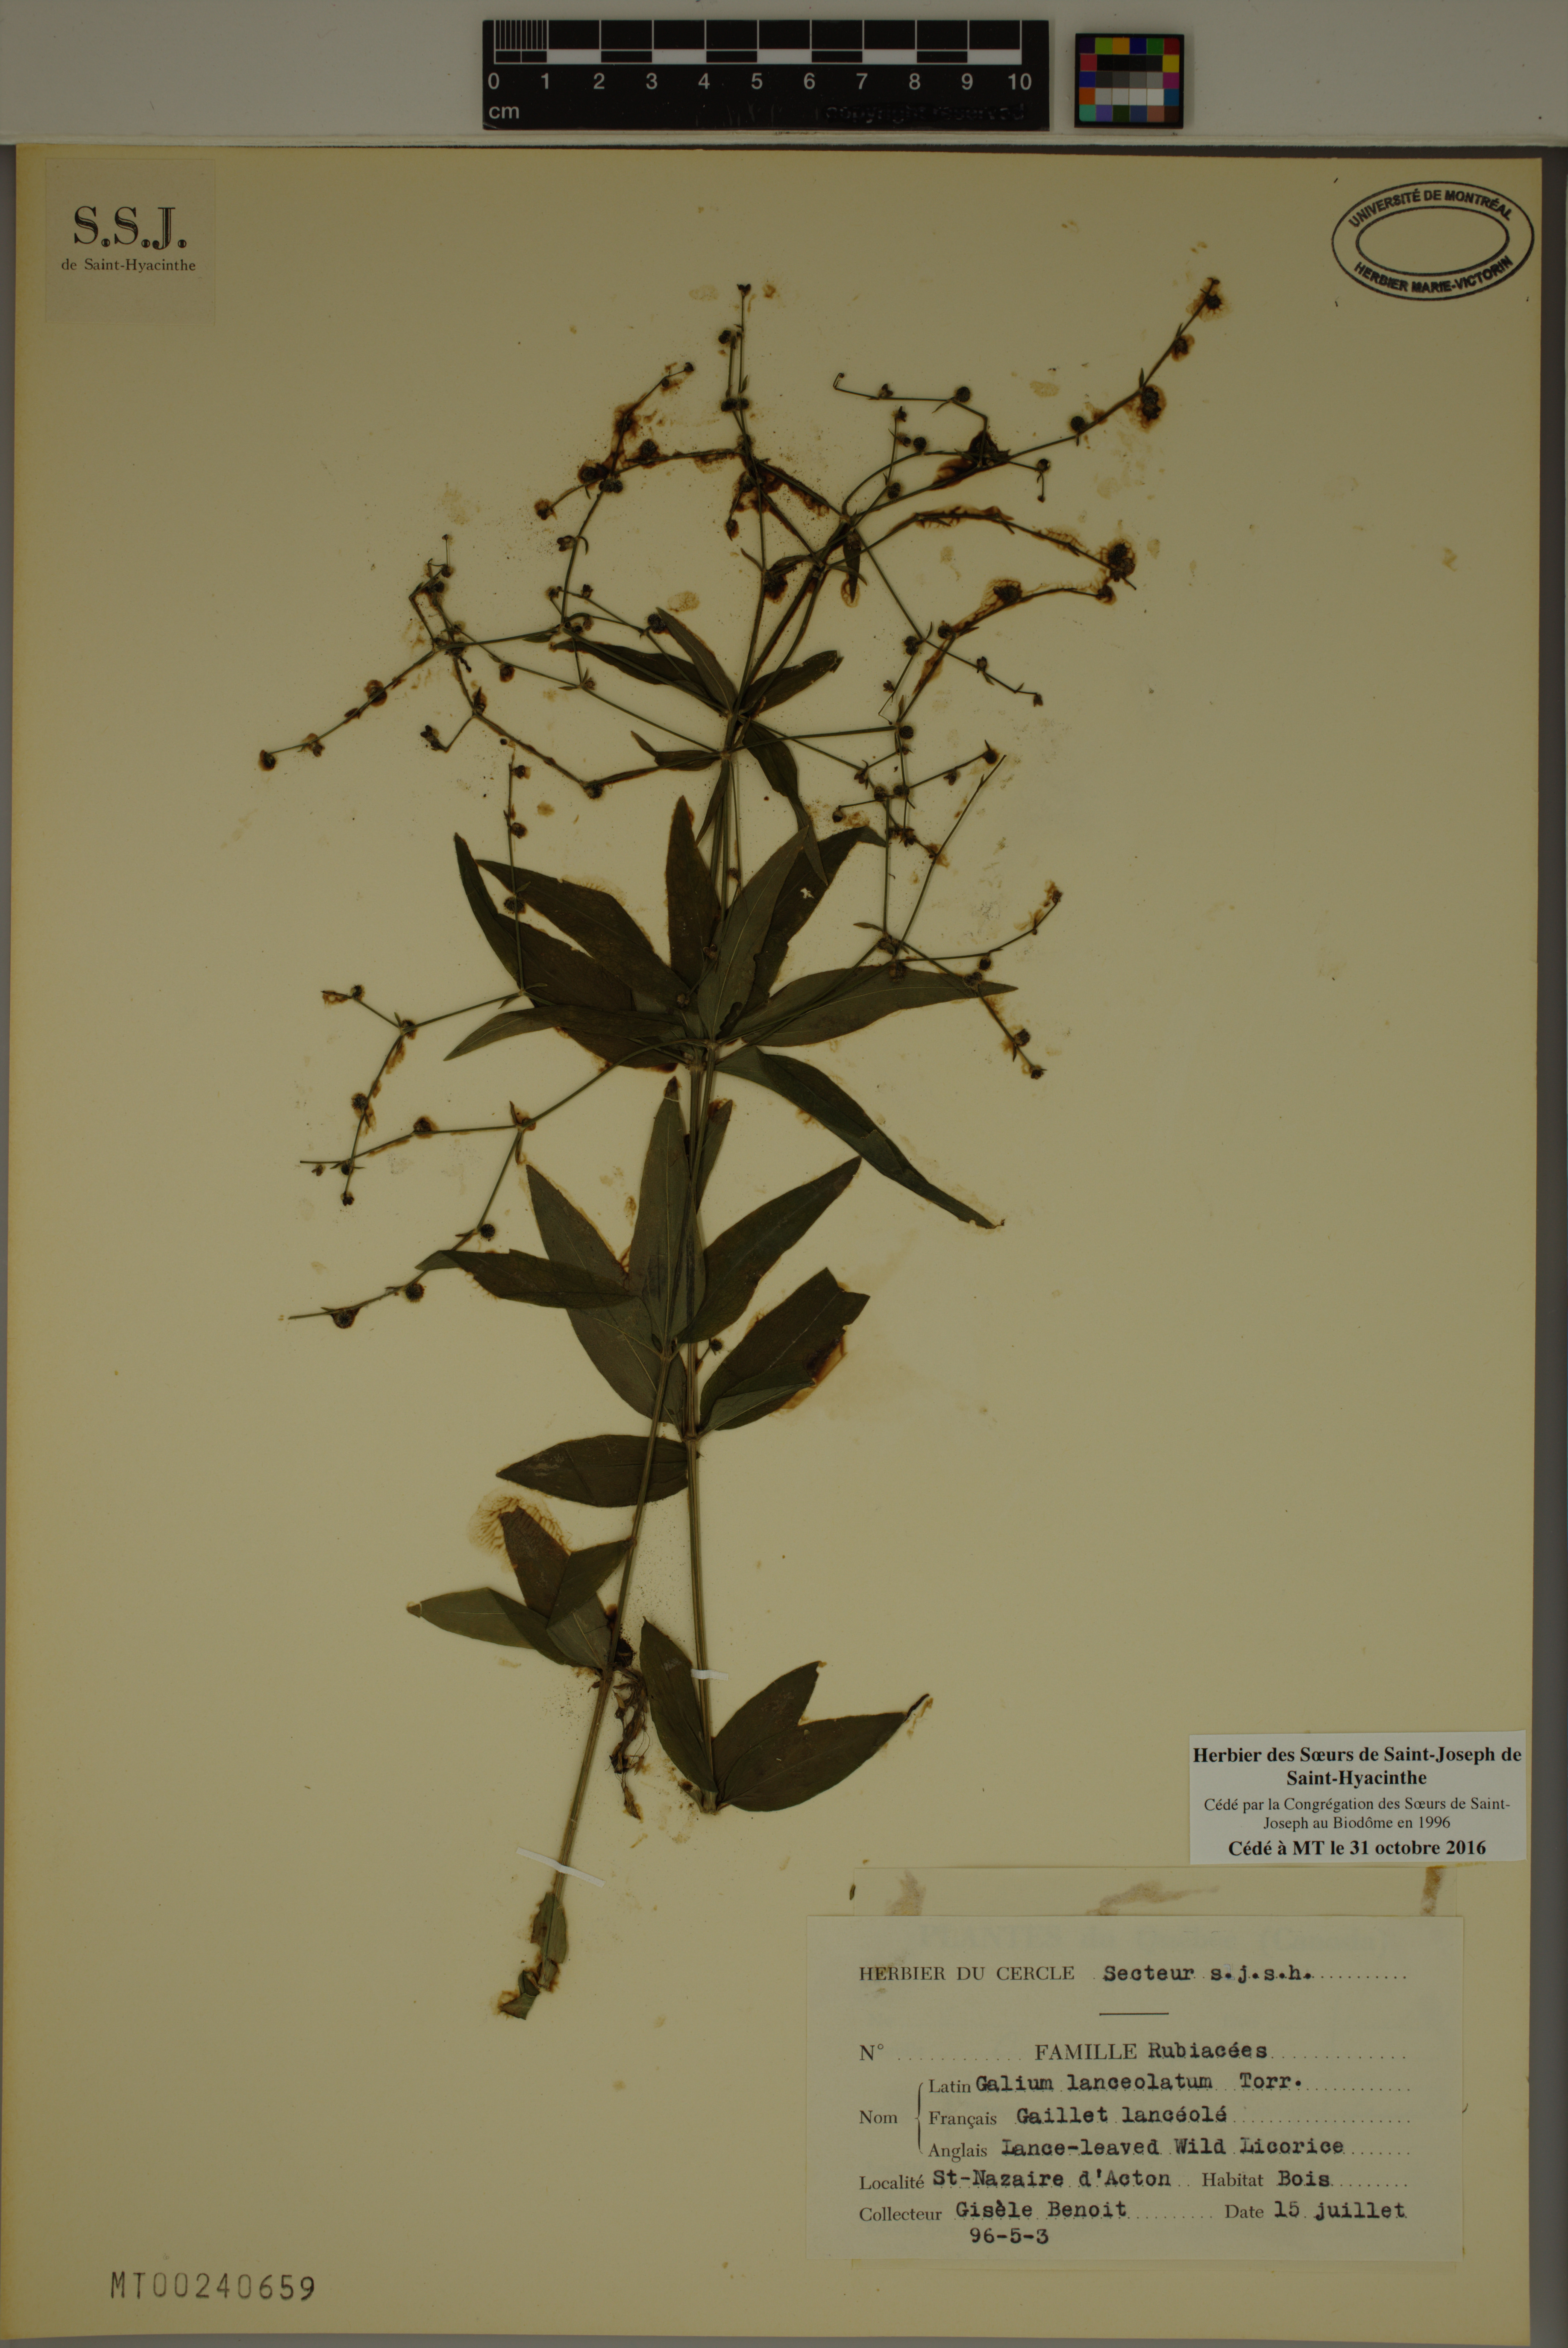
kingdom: Plantae
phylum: Tracheophyta
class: Magnoliopsida
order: Gentianales
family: Rubiaceae
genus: Galium
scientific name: Galium lanceolatum
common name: Lance-leaved wild licorice
